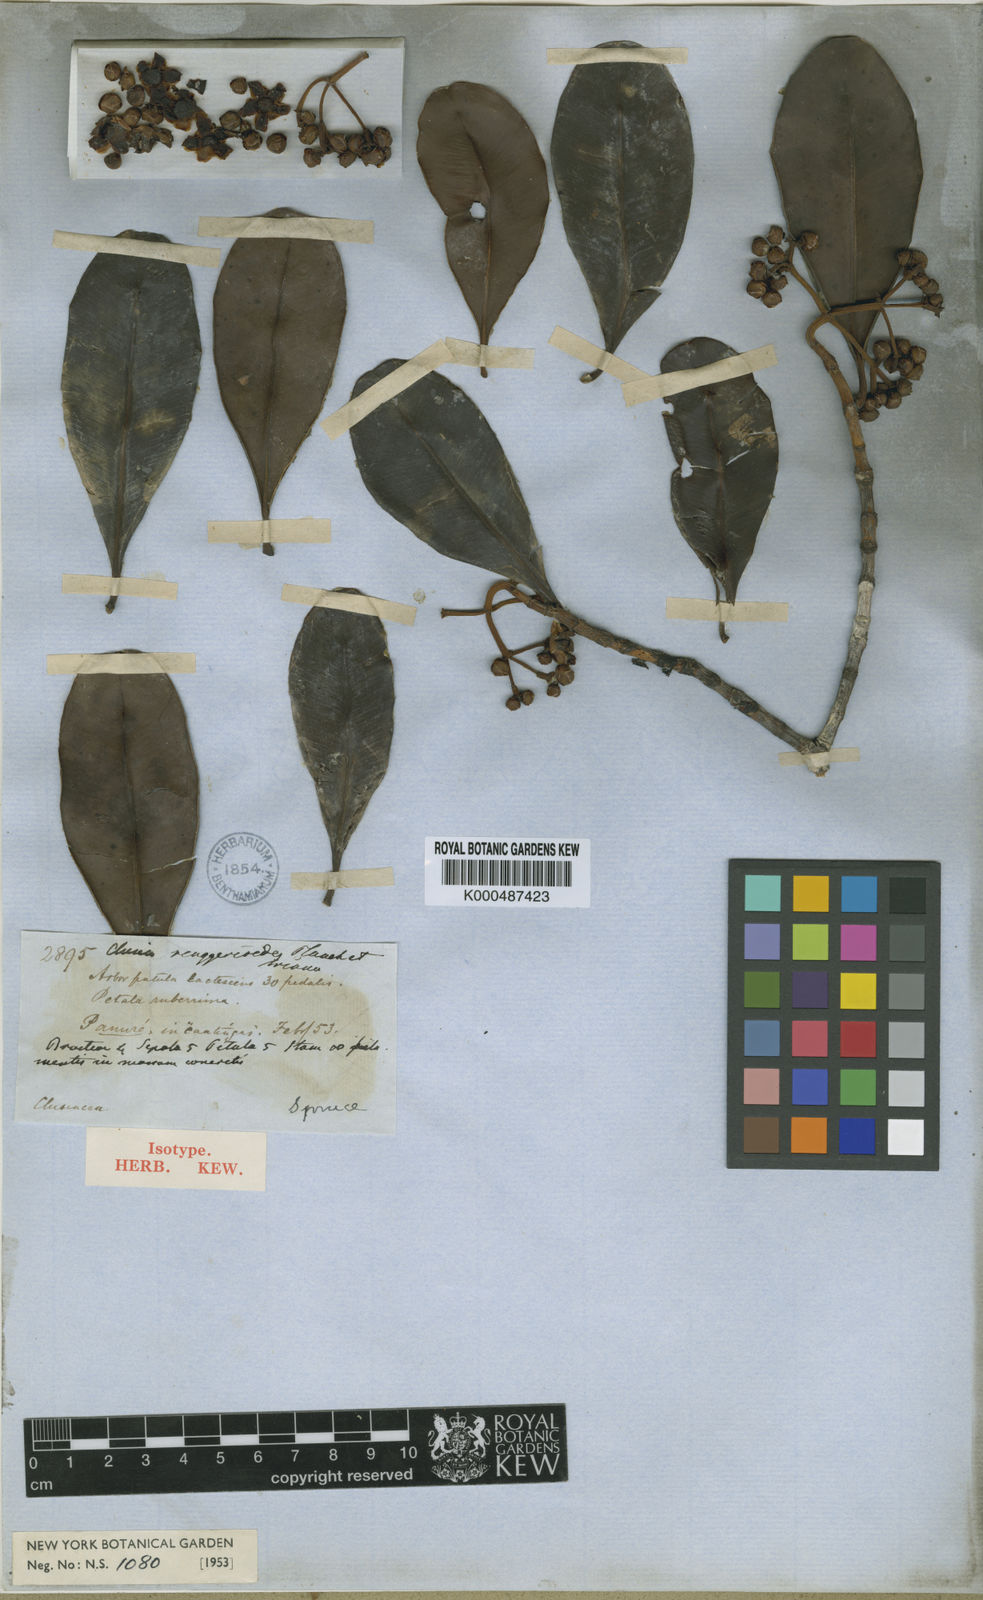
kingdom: Plantae
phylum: Tracheophyta
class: Magnoliopsida
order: Malpighiales
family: Clusiaceae
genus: Clusia
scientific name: Clusia renggerioides
